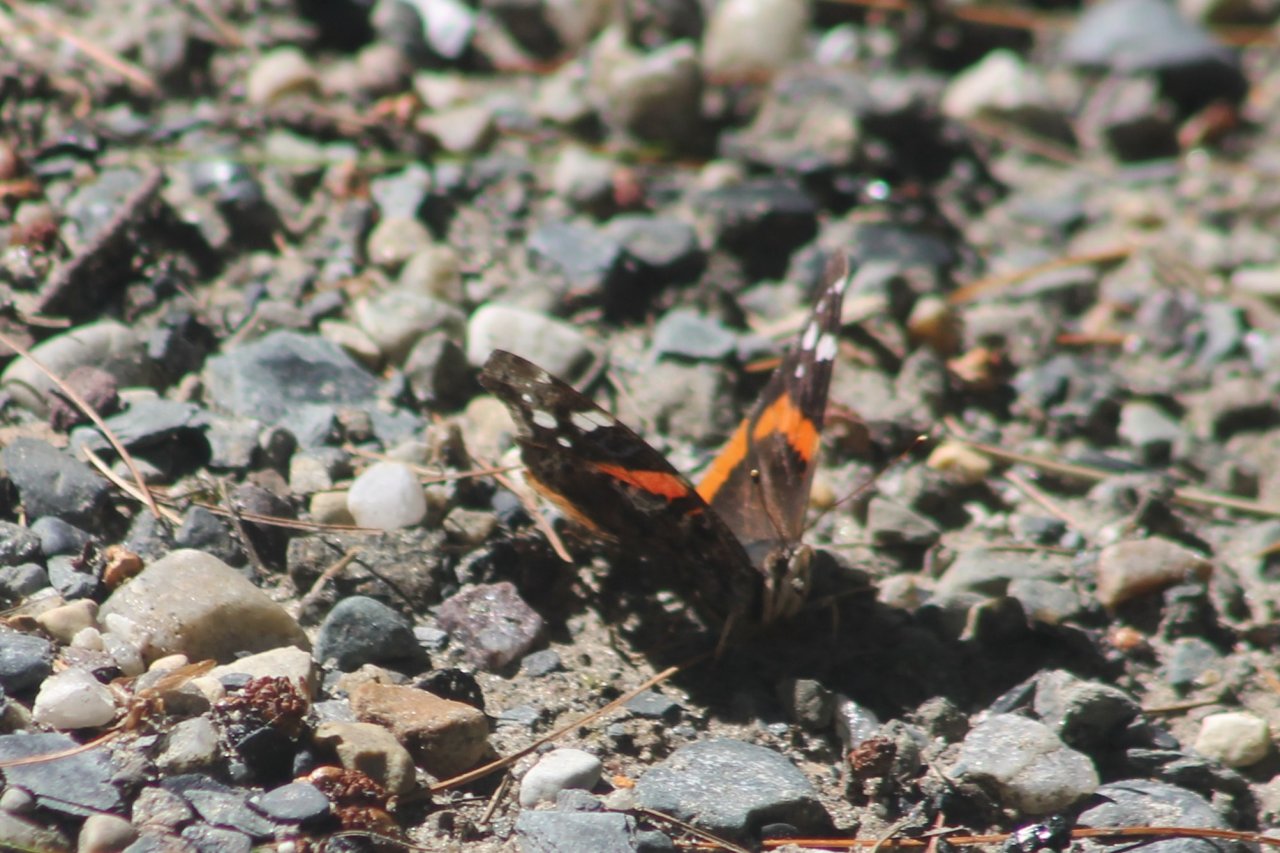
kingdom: Animalia
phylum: Arthropoda
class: Insecta
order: Lepidoptera
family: Nymphalidae
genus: Vanessa
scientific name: Vanessa atalanta
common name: Red Admiral
